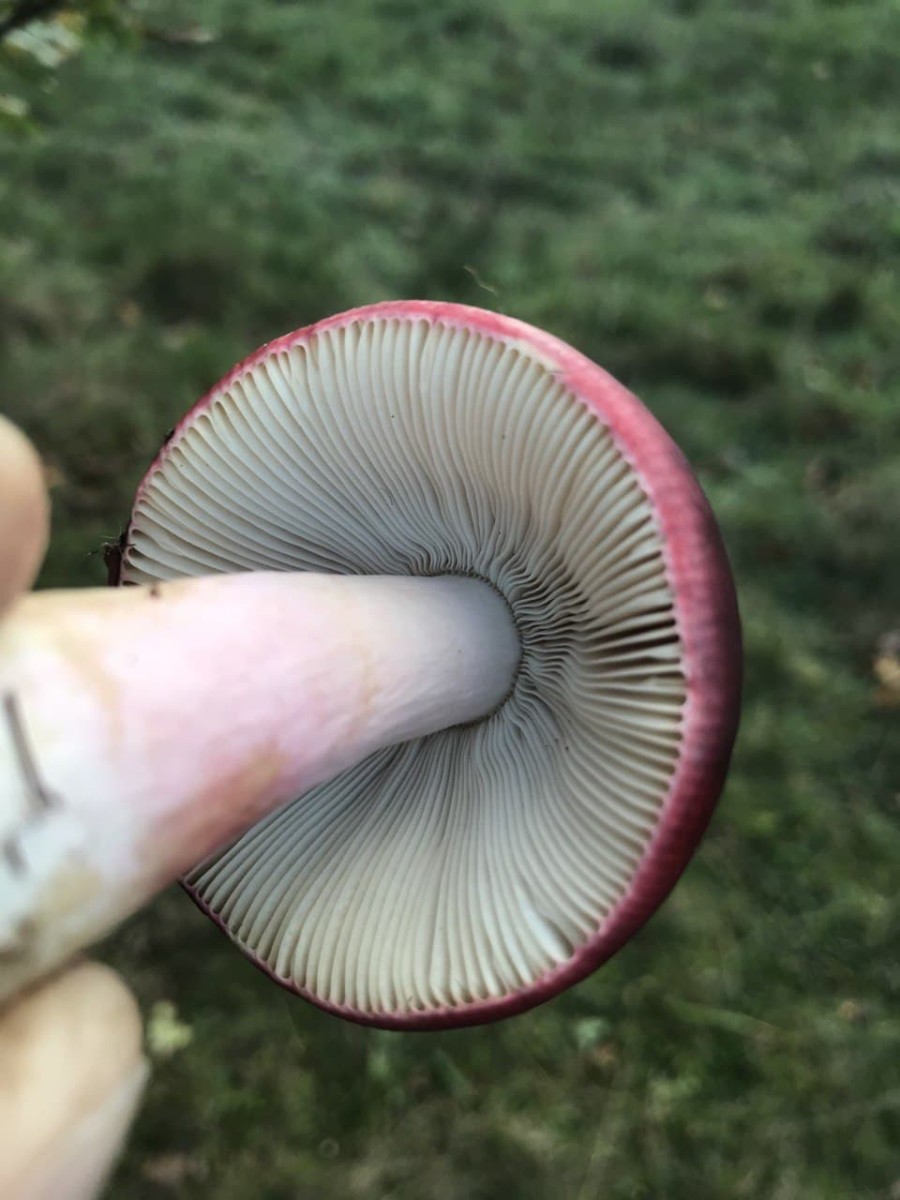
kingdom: Fungi
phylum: Basidiomycota
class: Agaricomycetes
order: Russulales
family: Russulaceae
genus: Russula
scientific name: Russula
